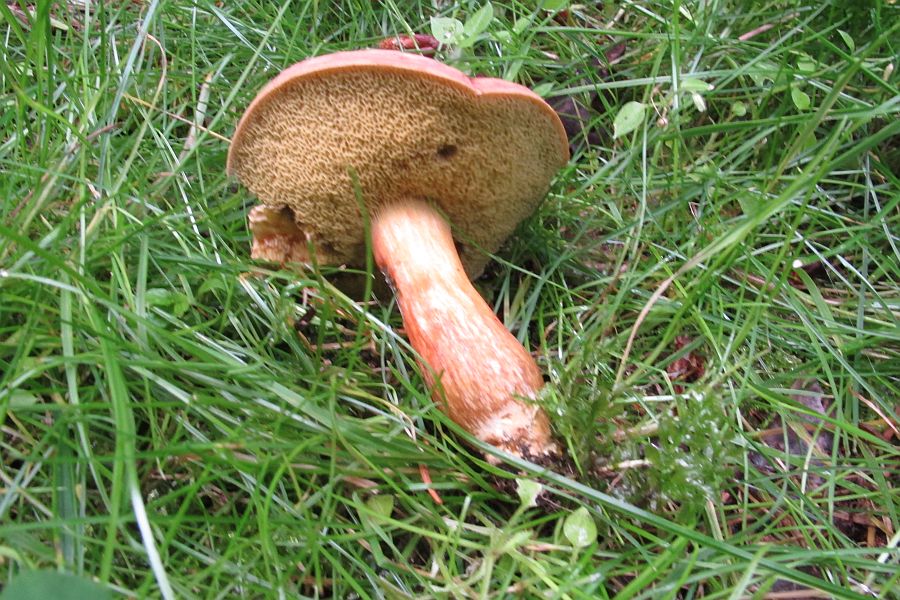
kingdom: Fungi
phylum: Basidiomycota
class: Agaricomycetes
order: Boletales
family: Boletaceae
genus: Hortiboletus
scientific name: Hortiboletus engelii
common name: fersken-rørhat
